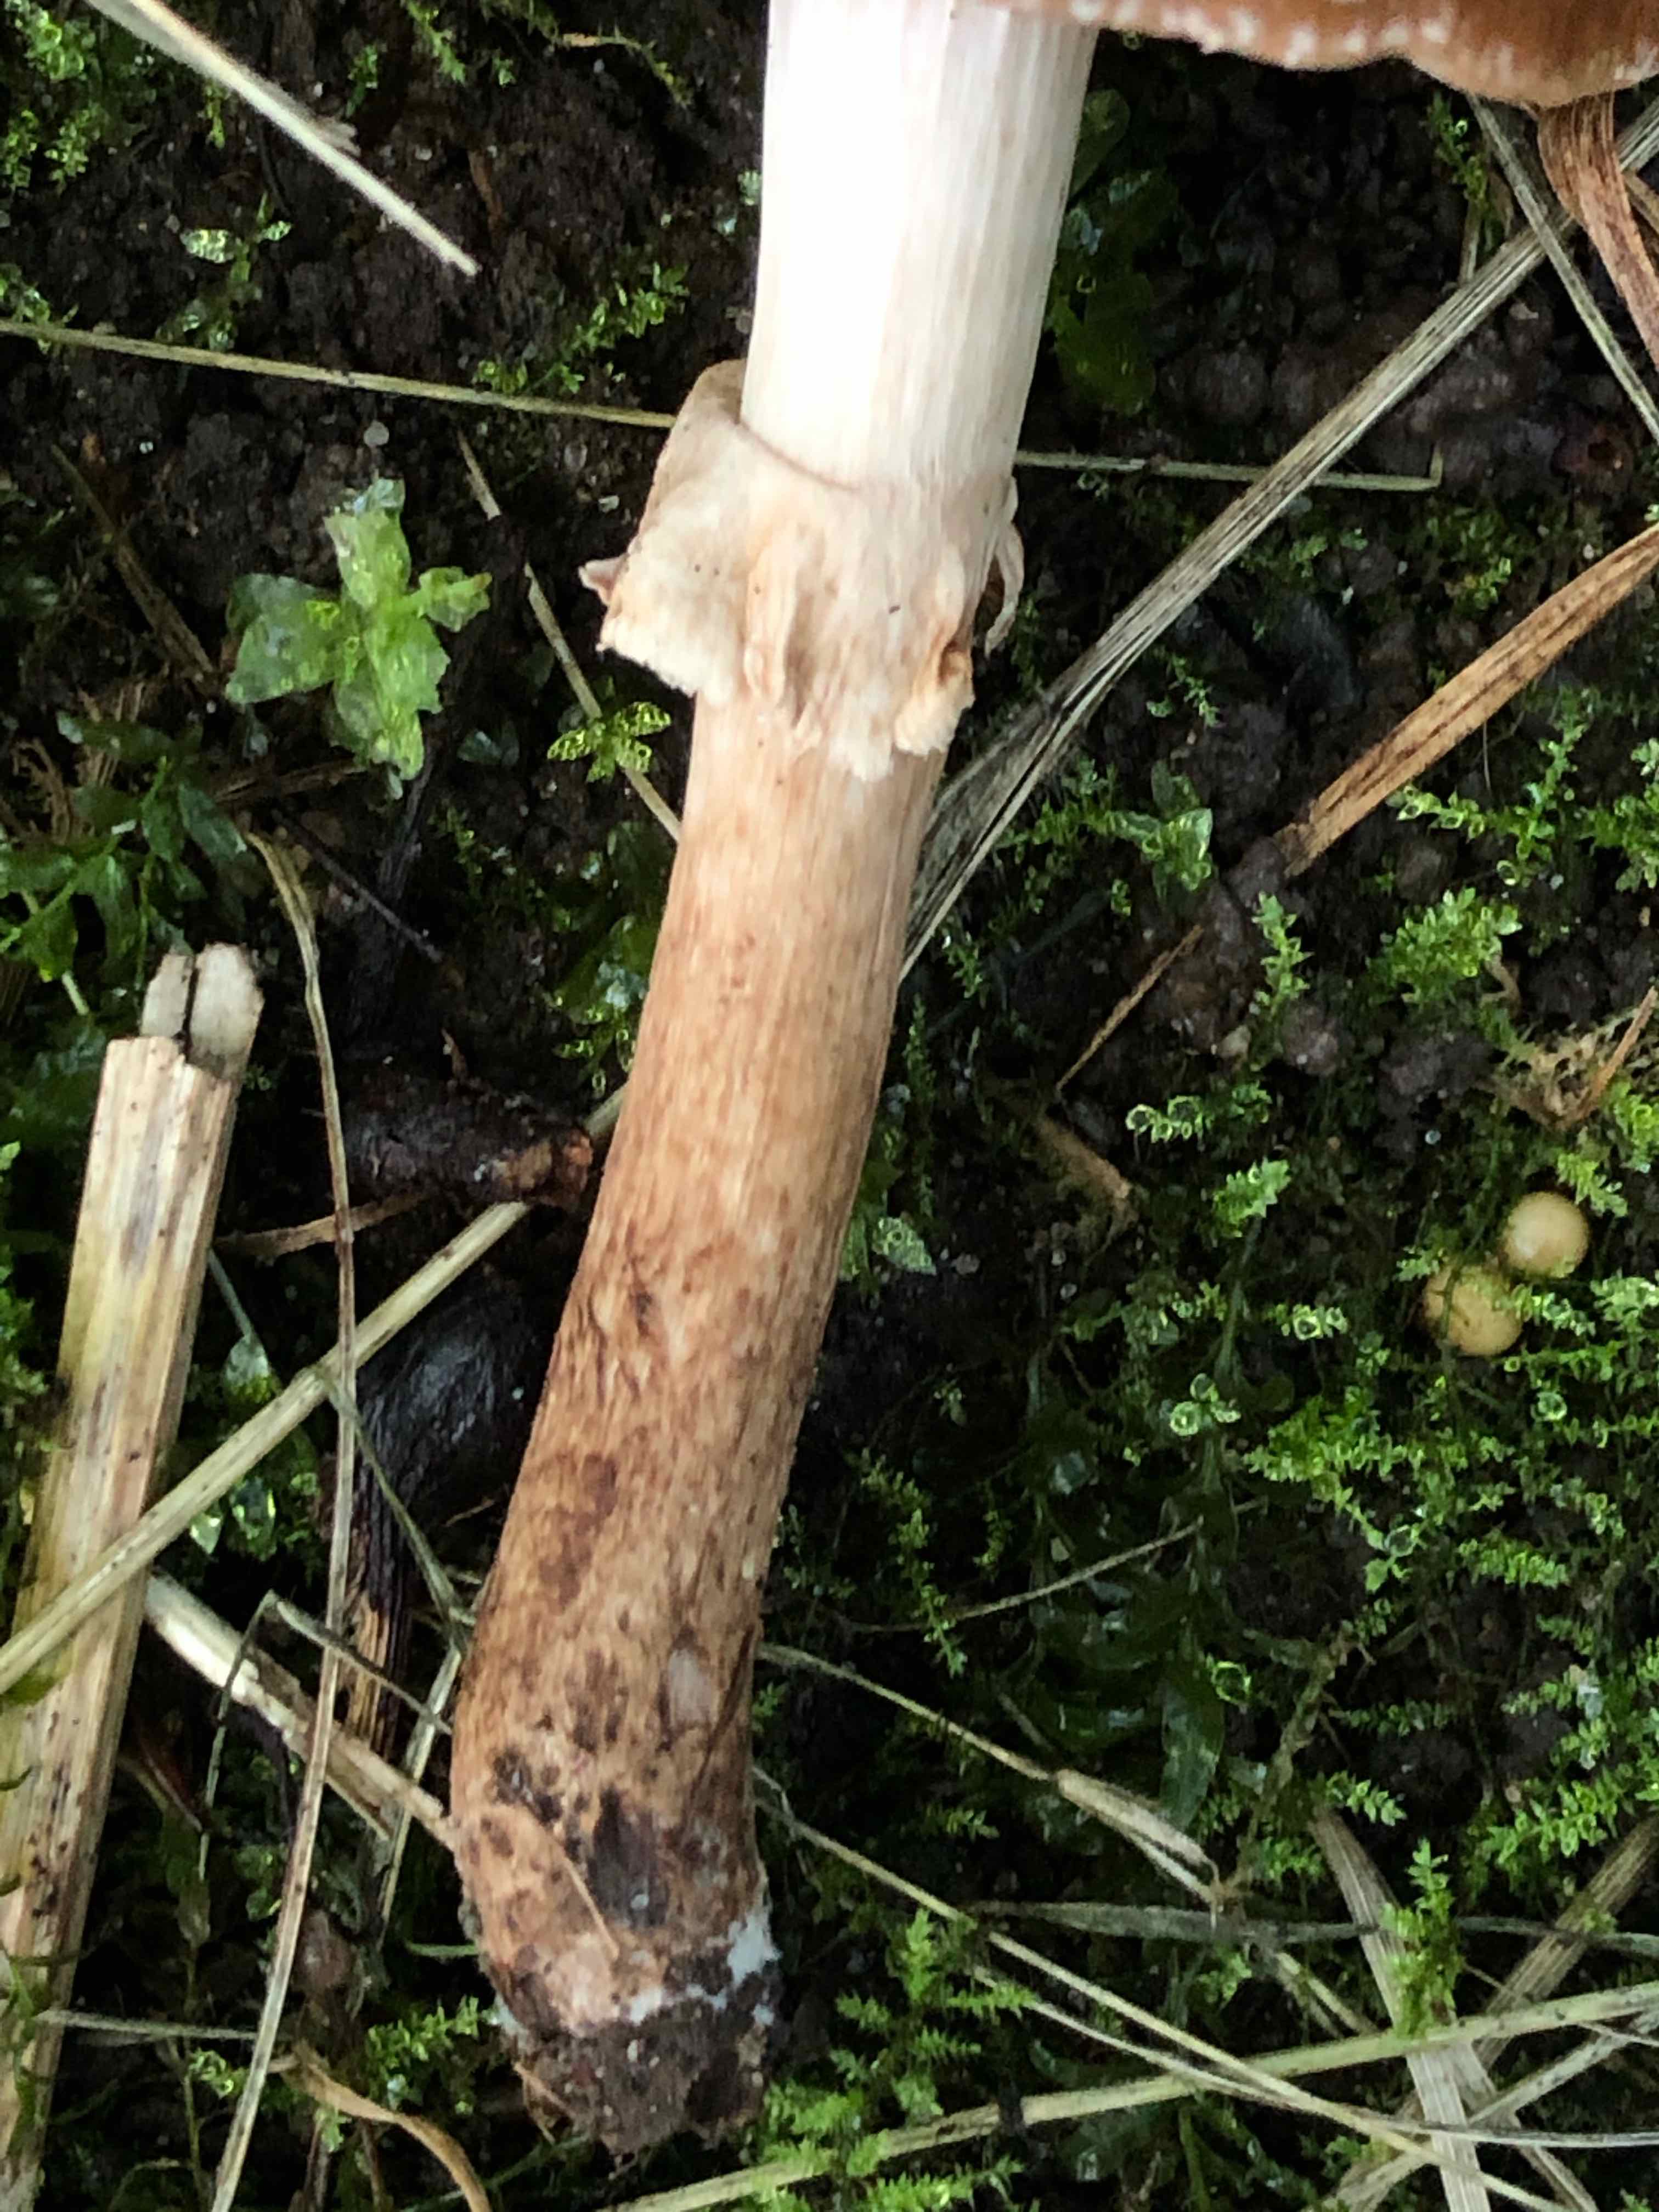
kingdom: Fungi
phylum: Basidiomycota
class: Agaricomycetes
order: Agaricales
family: Tubariaceae
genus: Cyclocybe
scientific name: Cyclocybe erebia
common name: mørk agerhat
